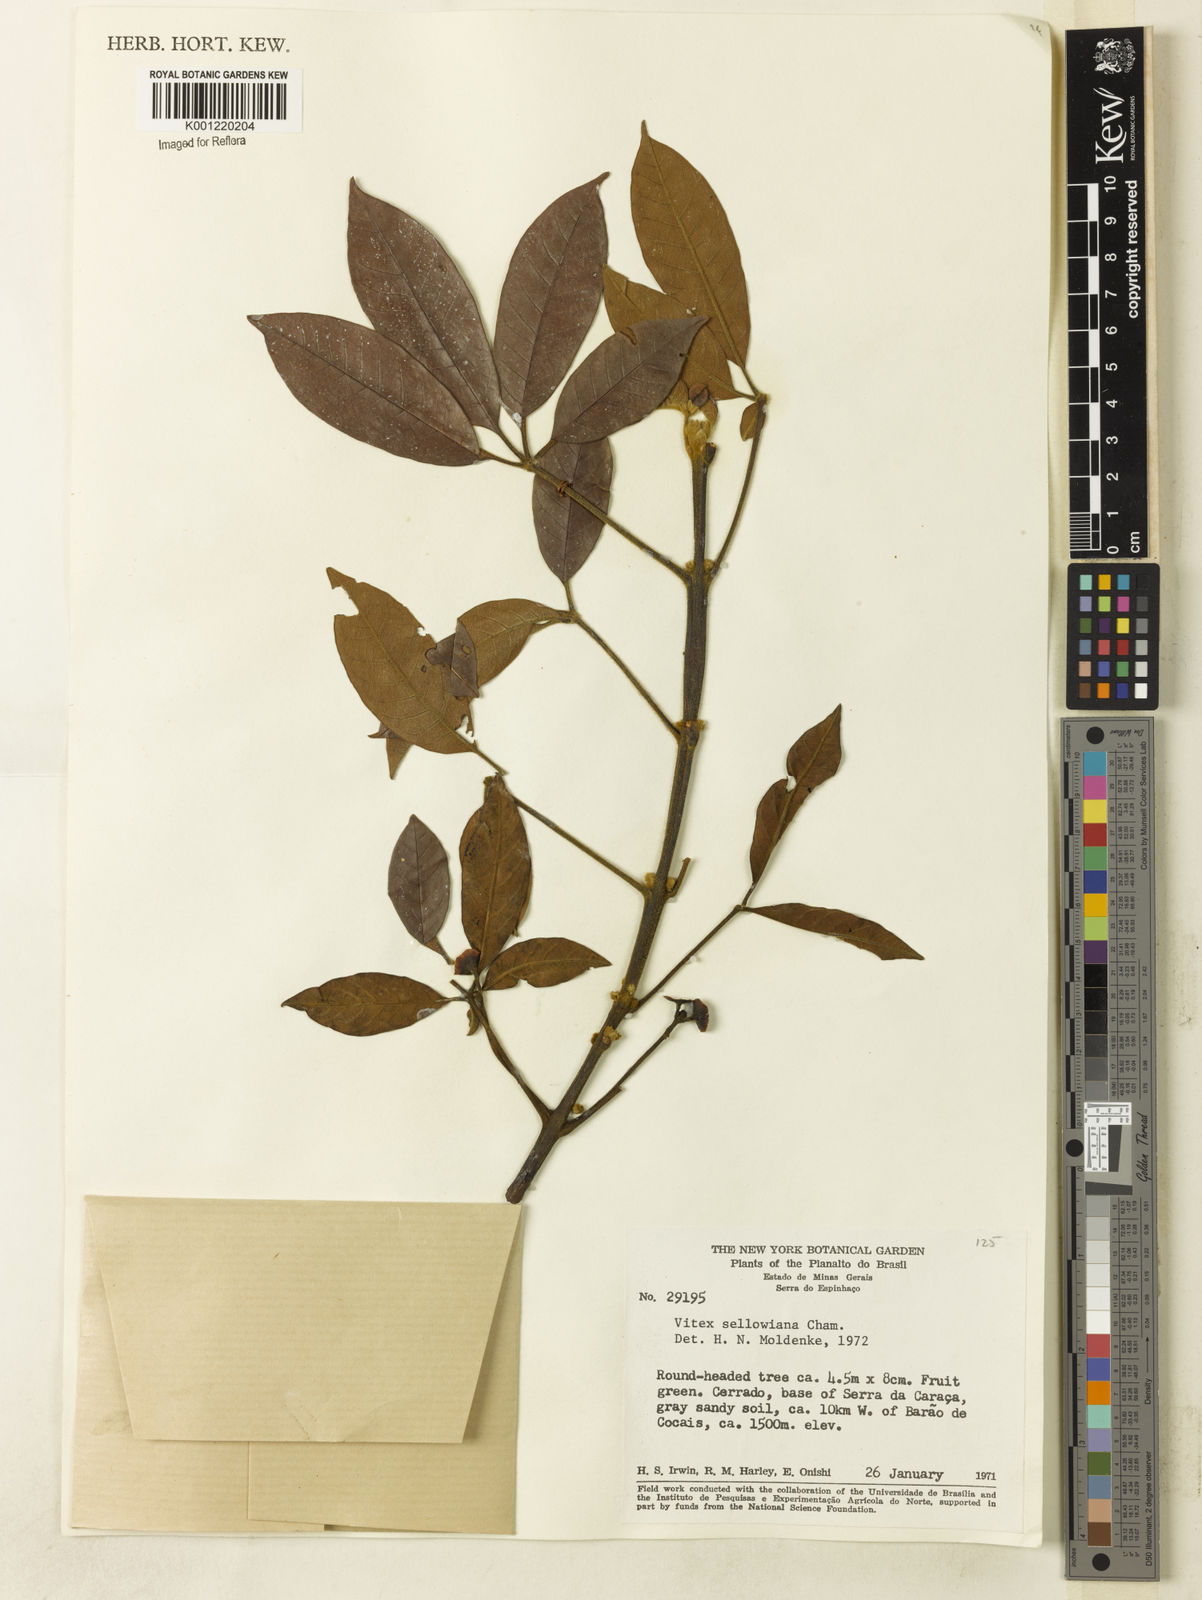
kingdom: Plantae
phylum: Tracheophyta
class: Magnoliopsida
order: Lamiales
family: Lamiaceae
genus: Vitex
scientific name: Vitex sellowiana
